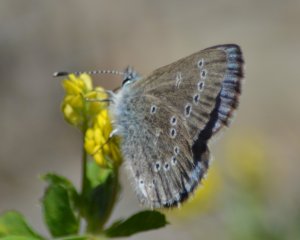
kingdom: Animalia
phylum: Arthropoda
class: Insecta
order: Lepidoptera
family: Lycaenidae
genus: Glaucopsyche
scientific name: Glaucopsyche lygdamus
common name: Silvery Blue
